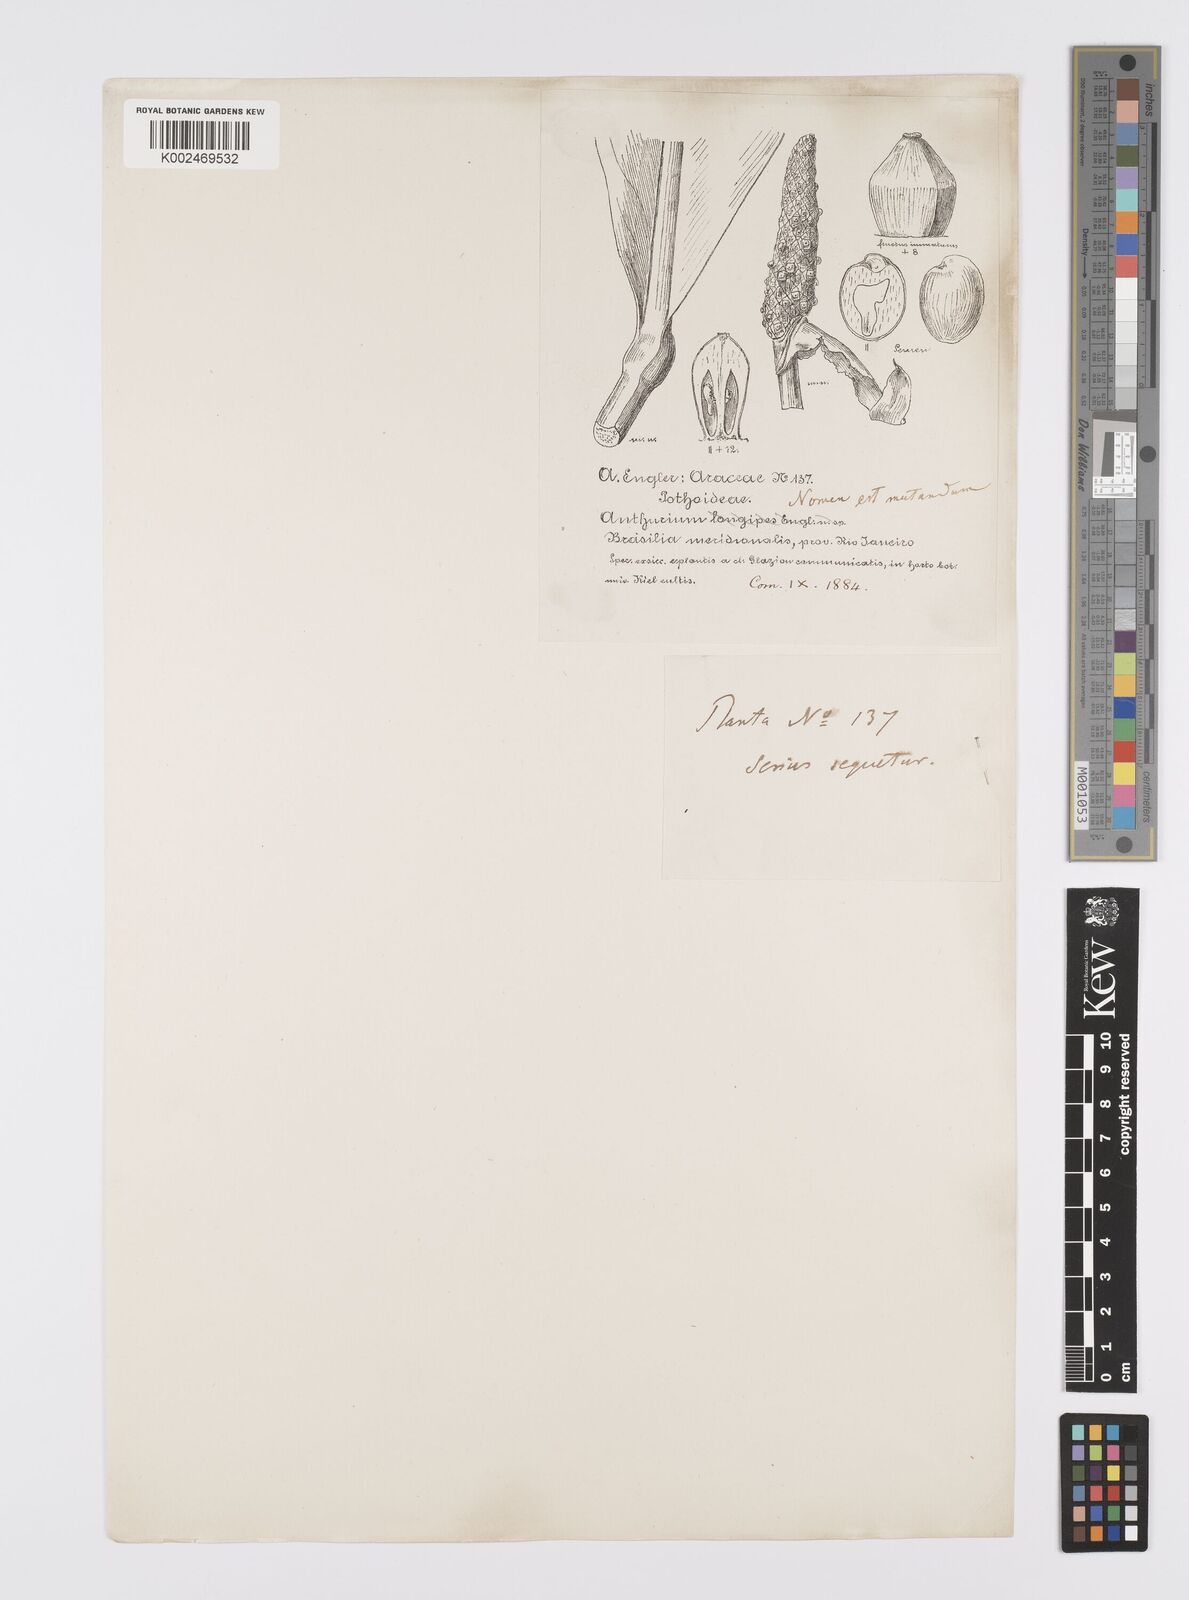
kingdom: Plantae
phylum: Tracheophyta
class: Liliopsida
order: Alismatales
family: Araceae
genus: Anthurium
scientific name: Anthurium binotii
